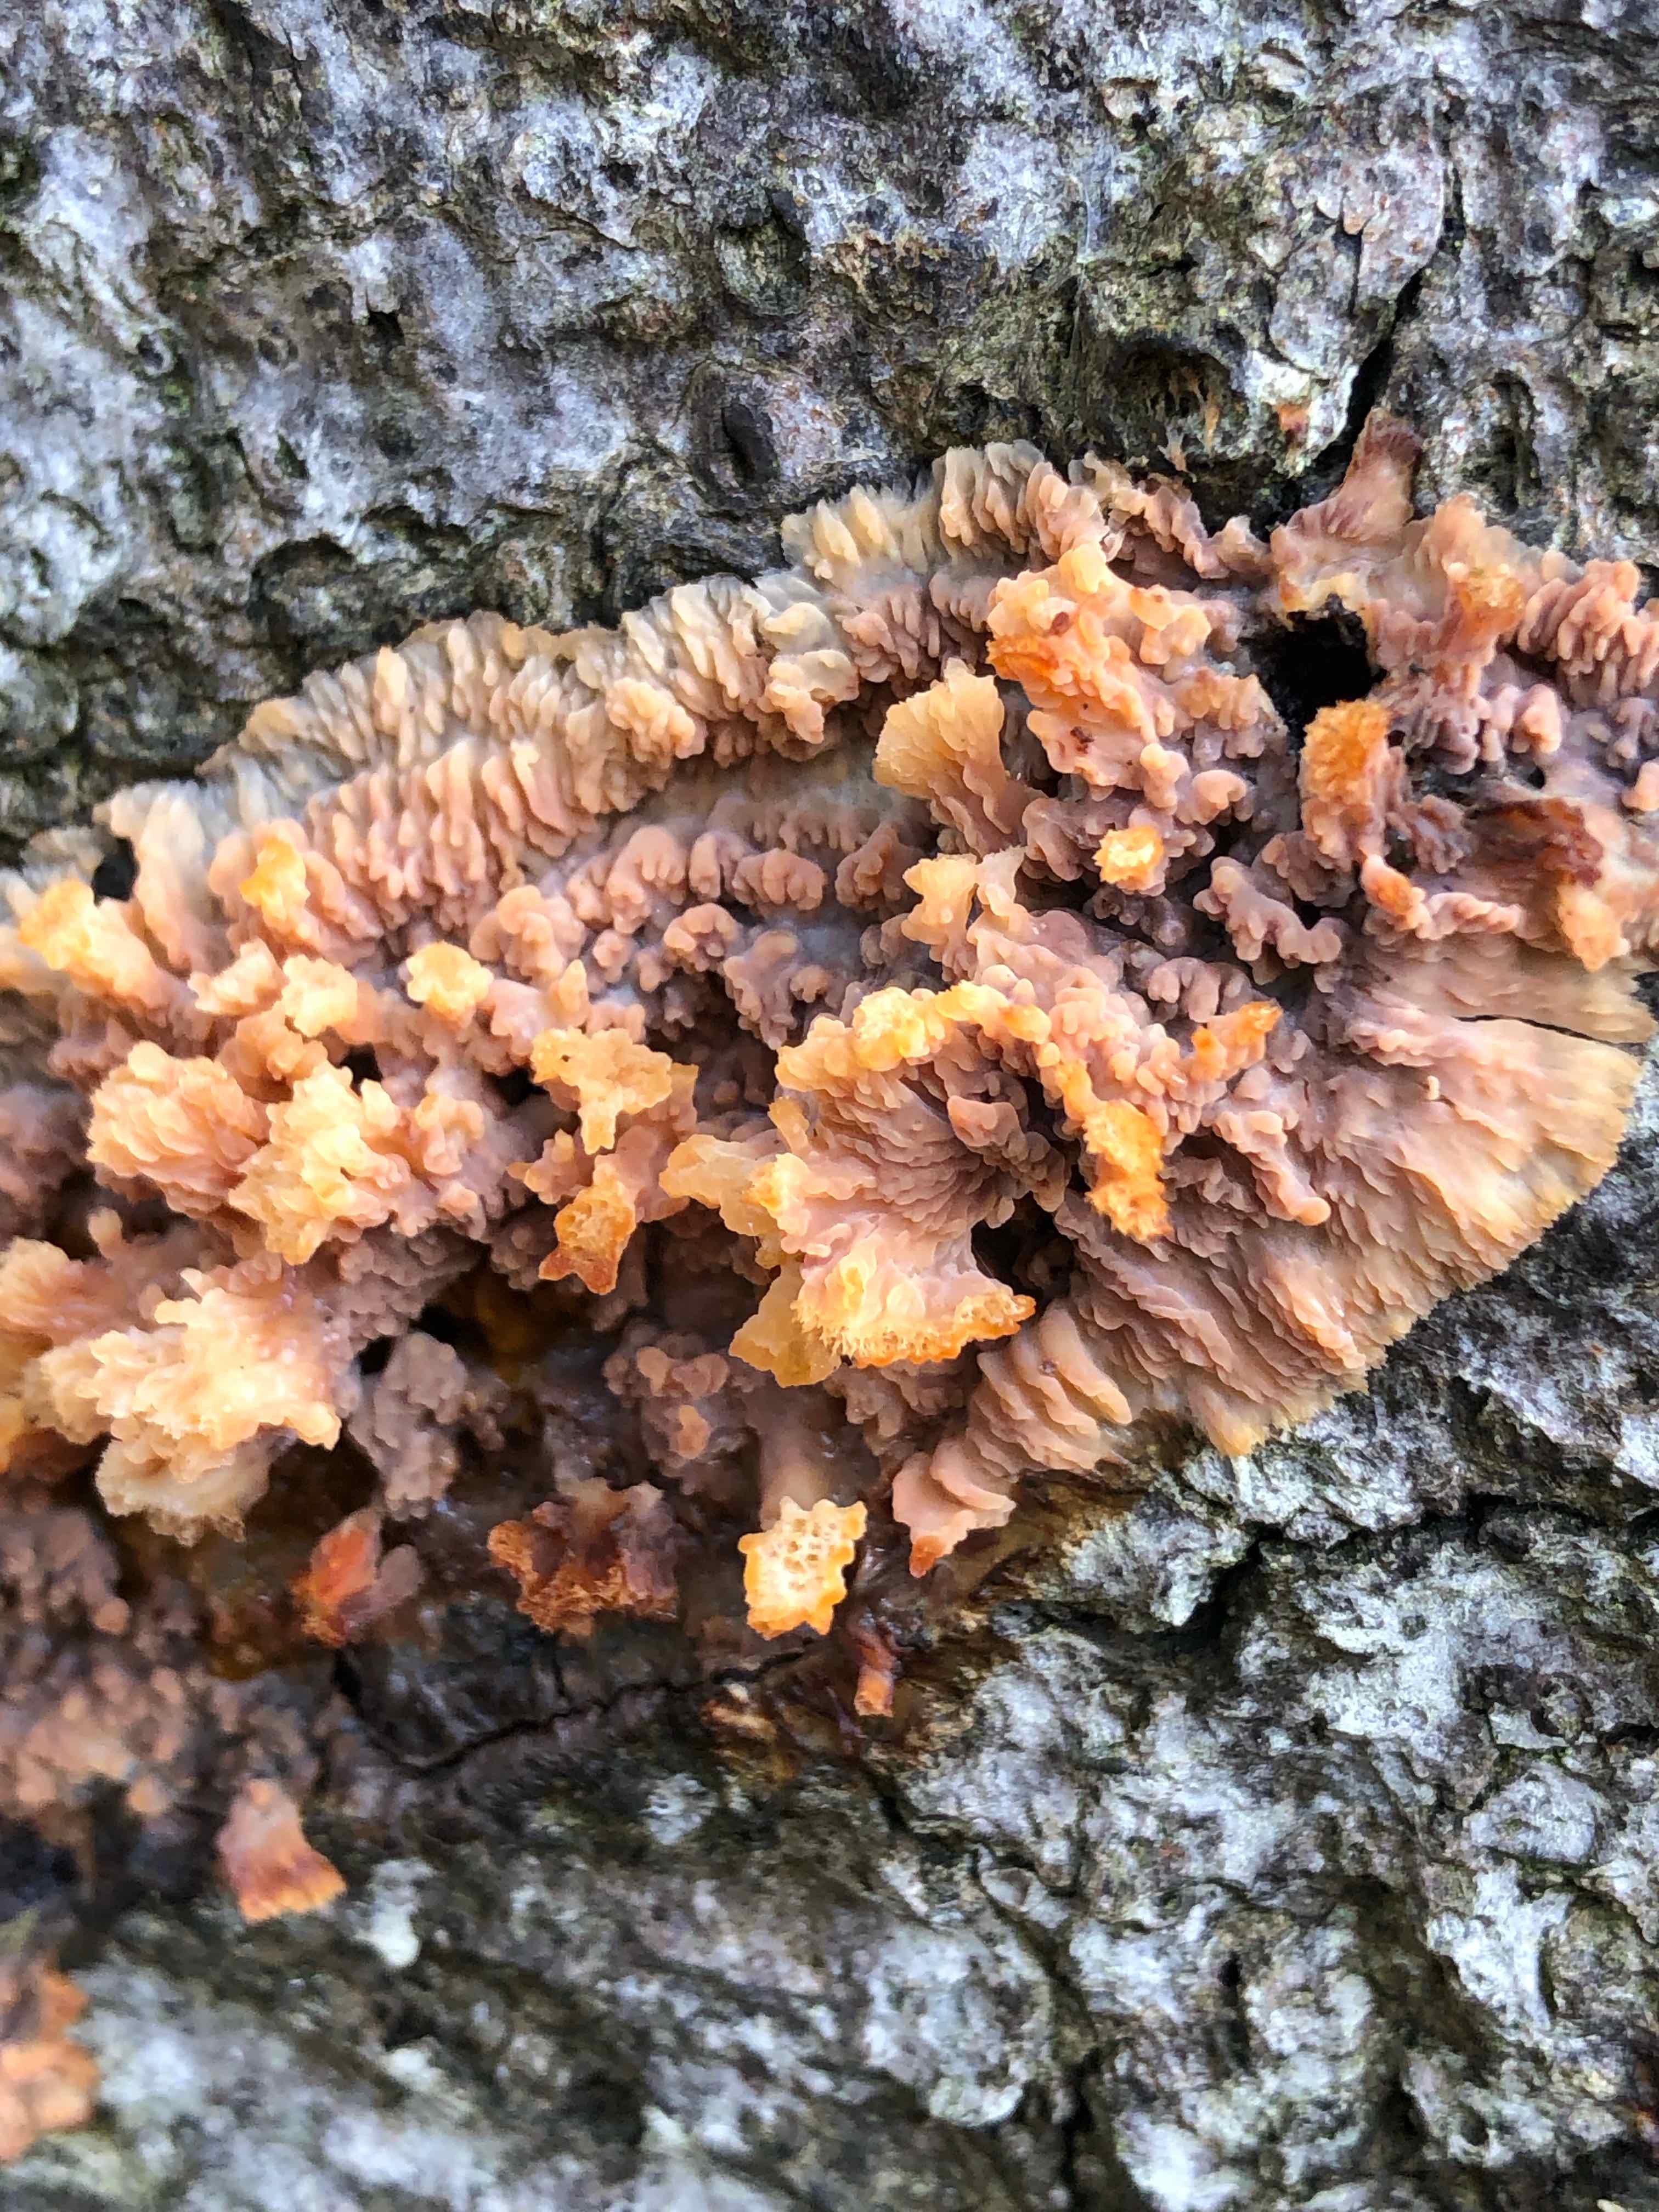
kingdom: Fungi
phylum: Basidiomycota
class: Agaricomycetes
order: Polyporales
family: Meruliaceae
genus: Phlebia
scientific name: Phlebia radiata
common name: stråle-åresvamp
